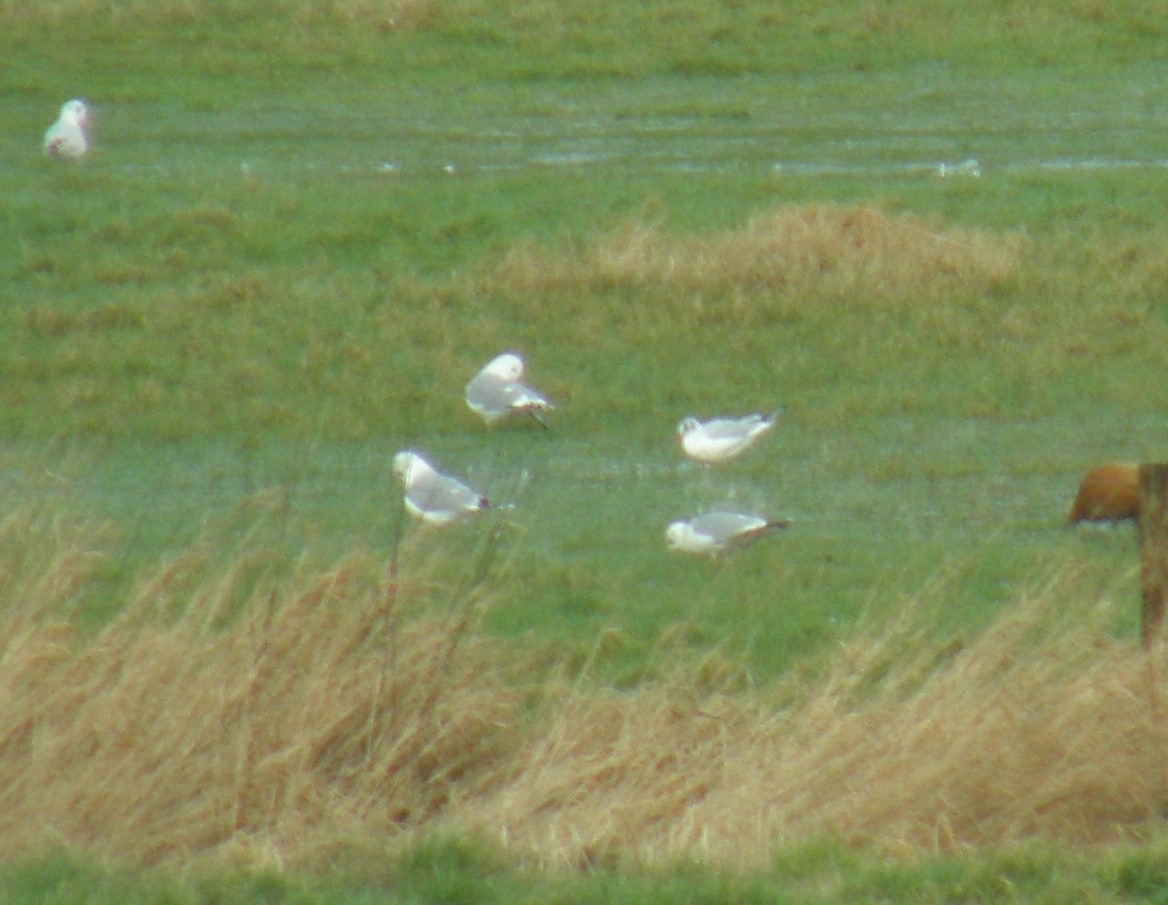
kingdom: Animalia
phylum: Chordata
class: Aves
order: Charadriiformes
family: Laridae
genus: Chroicocephalus
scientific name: Chroicocephalus ridibundus
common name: Hættemåge
